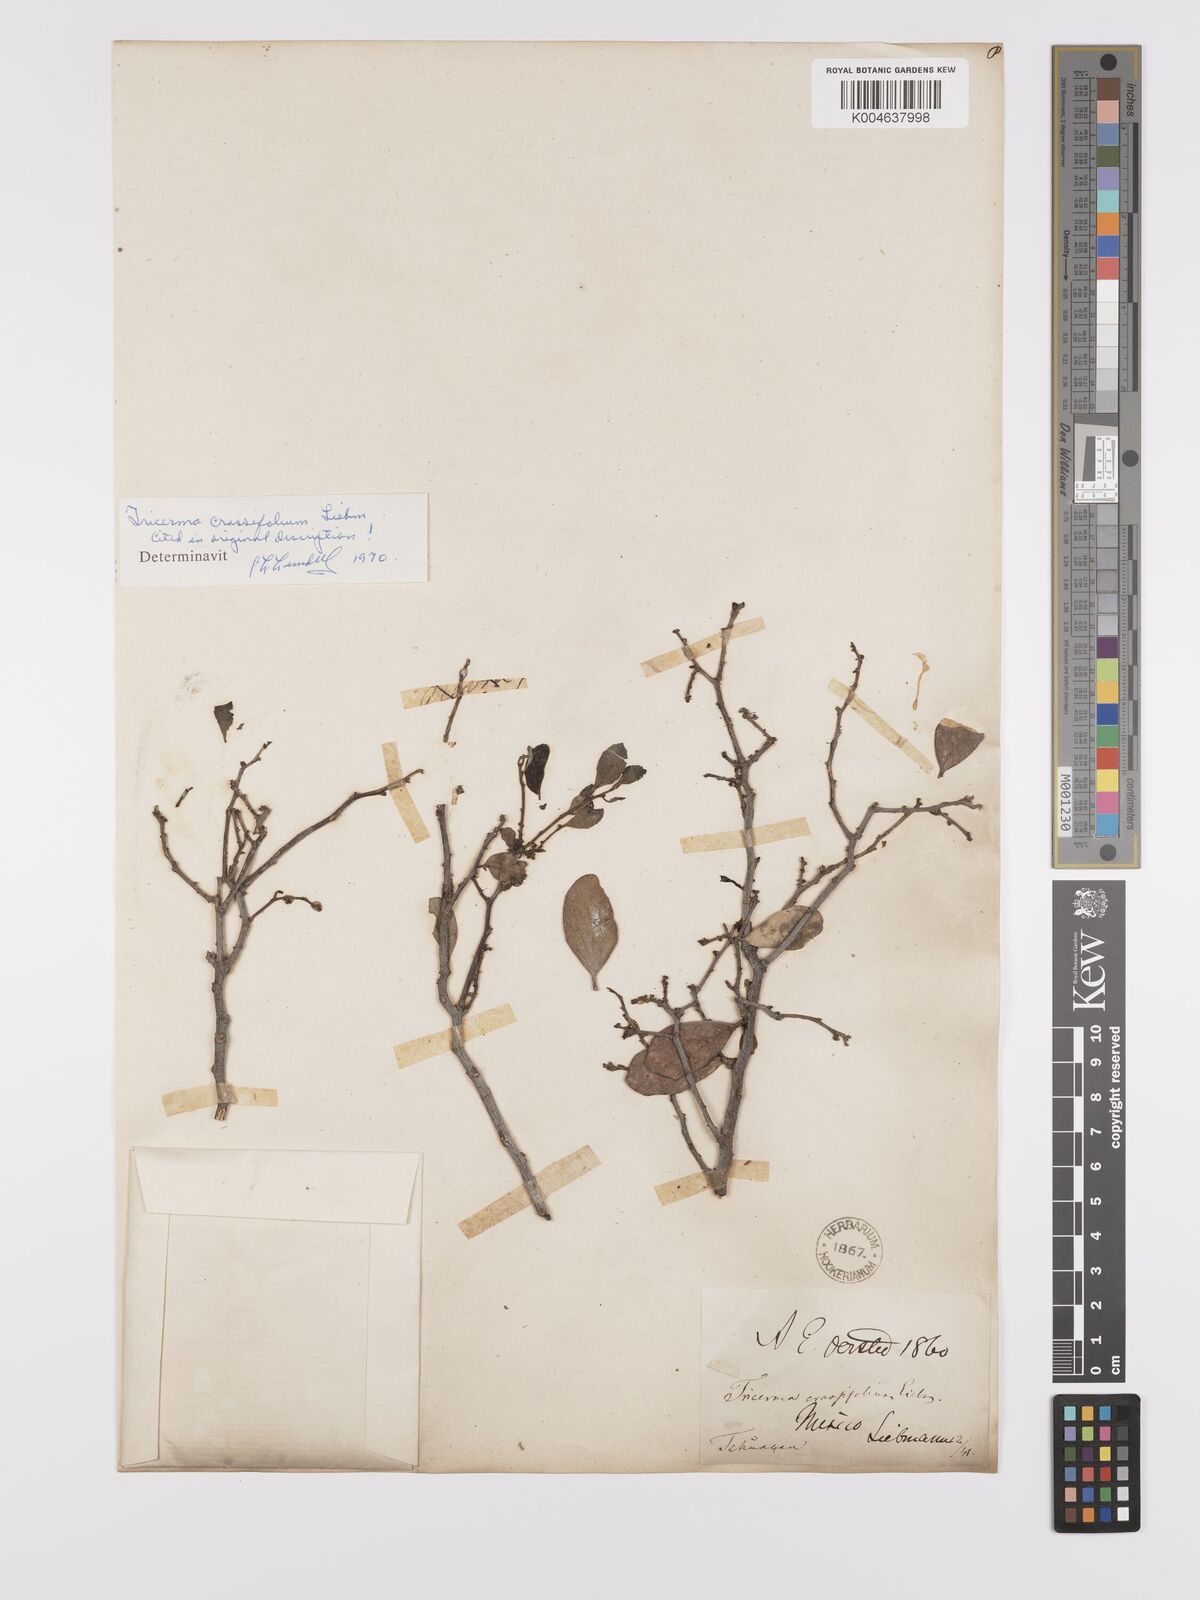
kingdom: Plantae
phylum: Tracheophyta
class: Magnoliopsida
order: Celastrales
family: Celastraceae
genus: Tricerma
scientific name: Tricerma phyllanthoides
